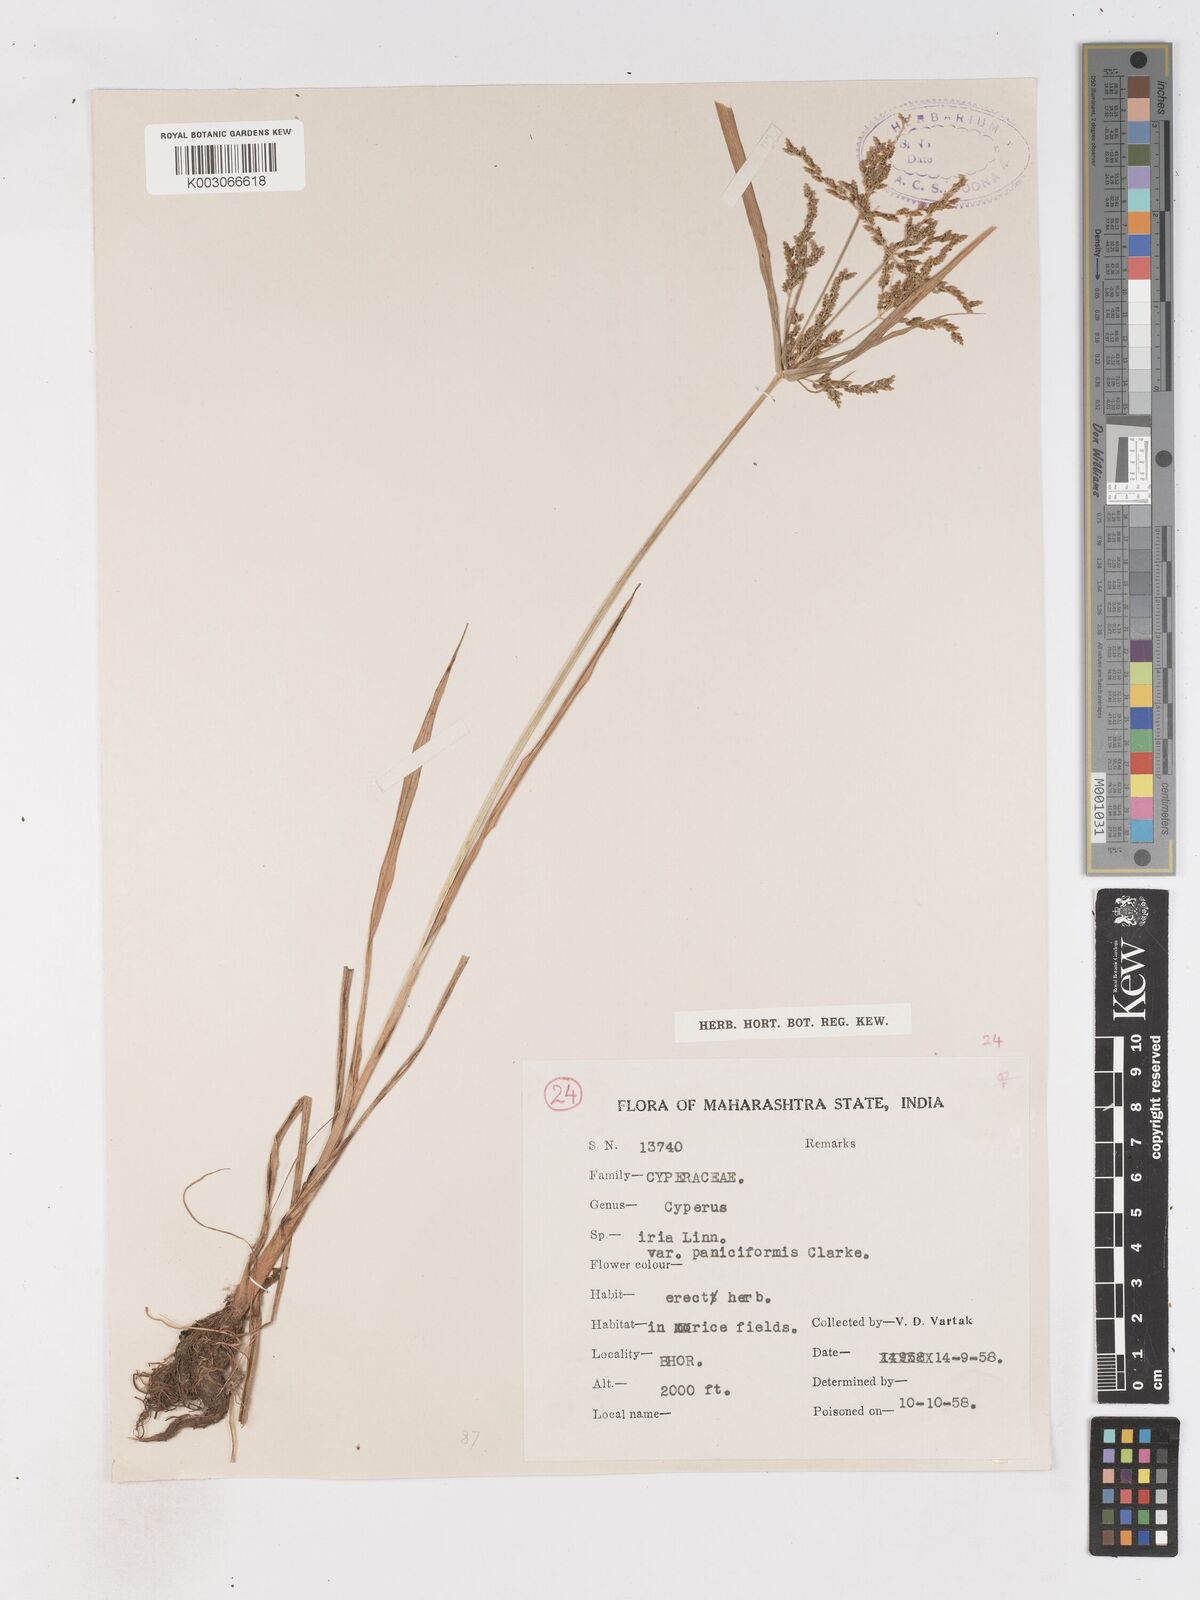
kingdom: Plantae
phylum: Tracheophyta
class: Liliopsida
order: Poales
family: Cyperaceae
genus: Cyperus
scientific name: Cyperus microiria
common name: Asian flatsedge
